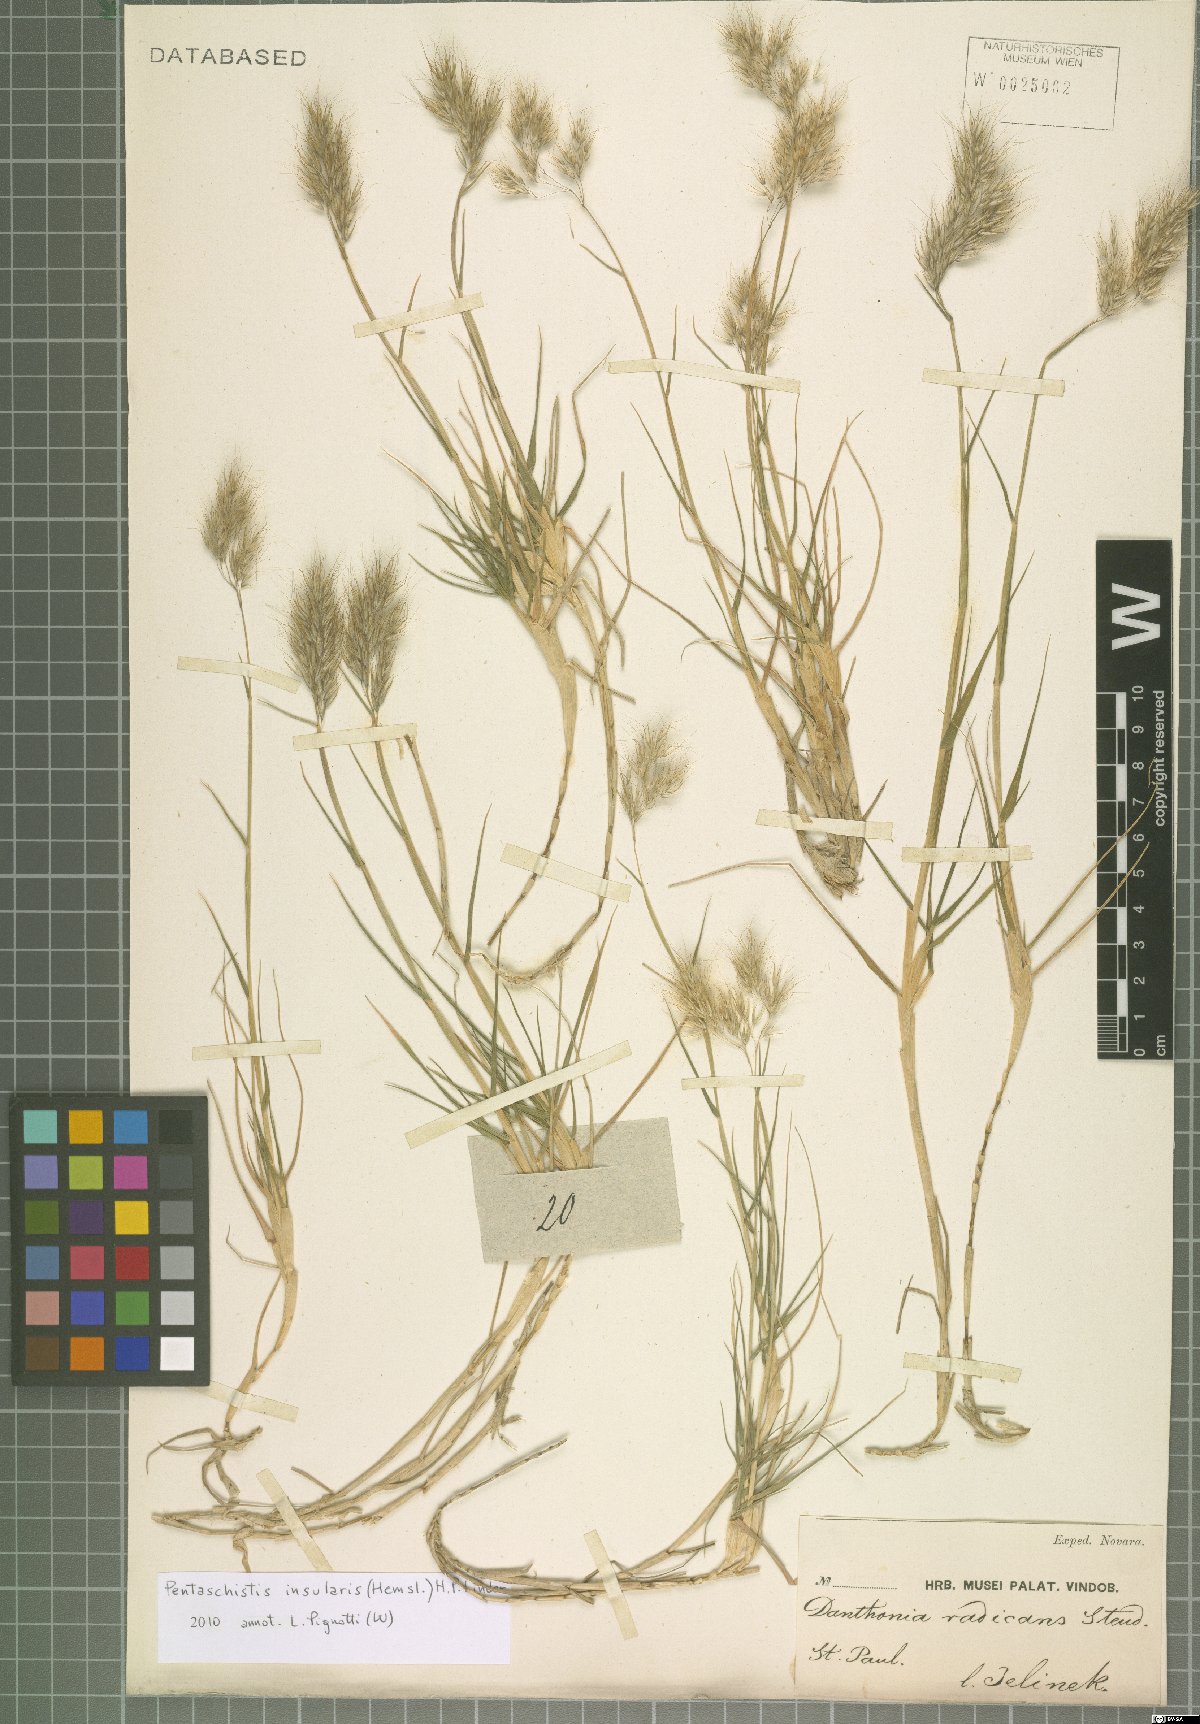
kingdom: Plantae
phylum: Tracheophyta
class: Liliopsida
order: Poales
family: Poaceae
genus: Pentameris
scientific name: Pentameris insularis
